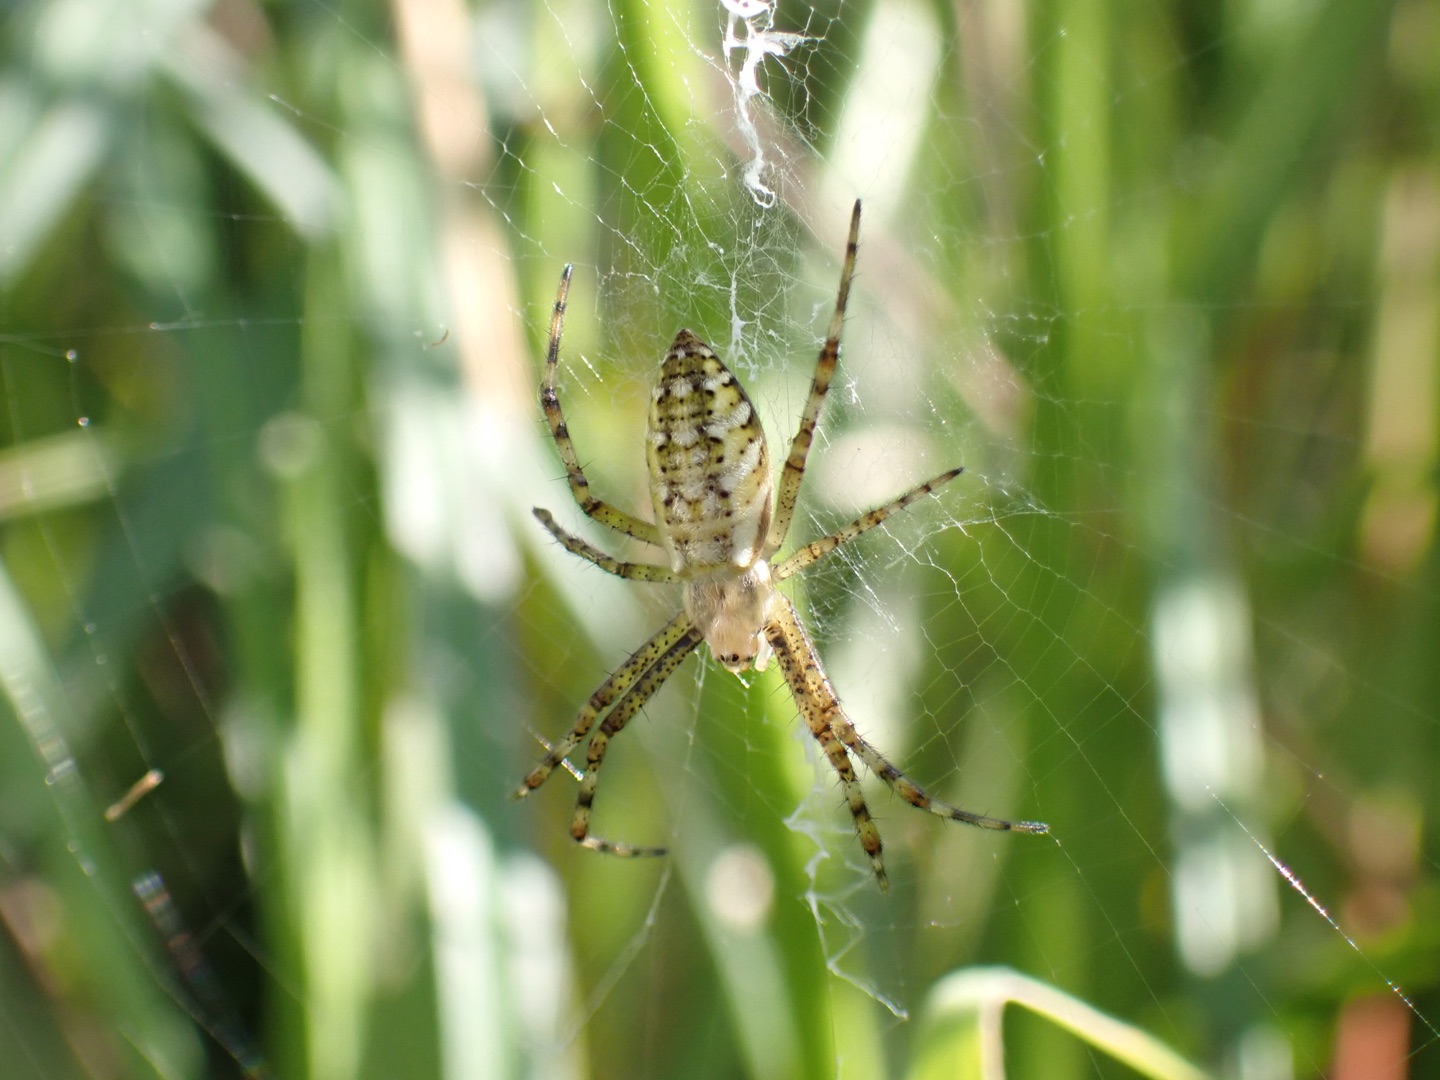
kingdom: Animalia
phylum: Arthropoda
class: Arachnida
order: Araneae
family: Araneidae
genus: Argiope
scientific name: Argiope bruennichi
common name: Hvepseedderkop
